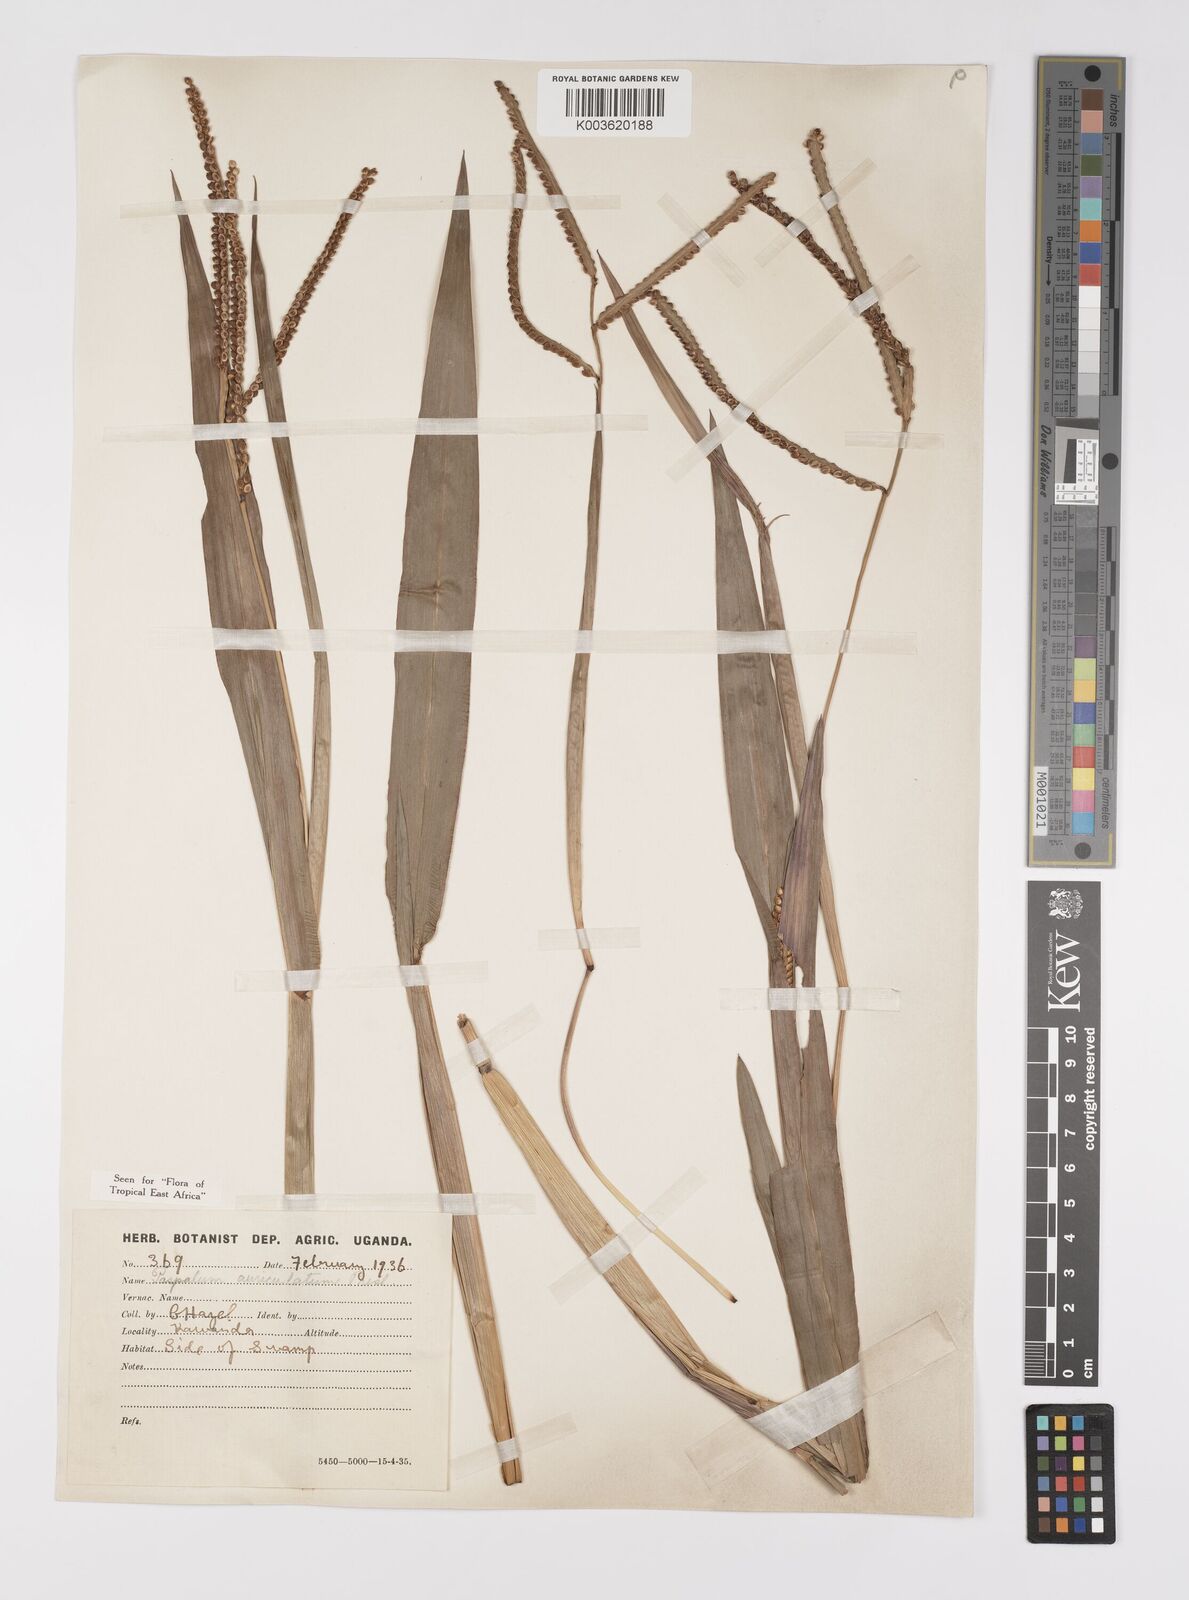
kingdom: Plantae
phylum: Tracheophyta
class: Liliopsida
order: Poales
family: Poaceae
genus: Paspalum
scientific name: Paspalum lamprocaryon
